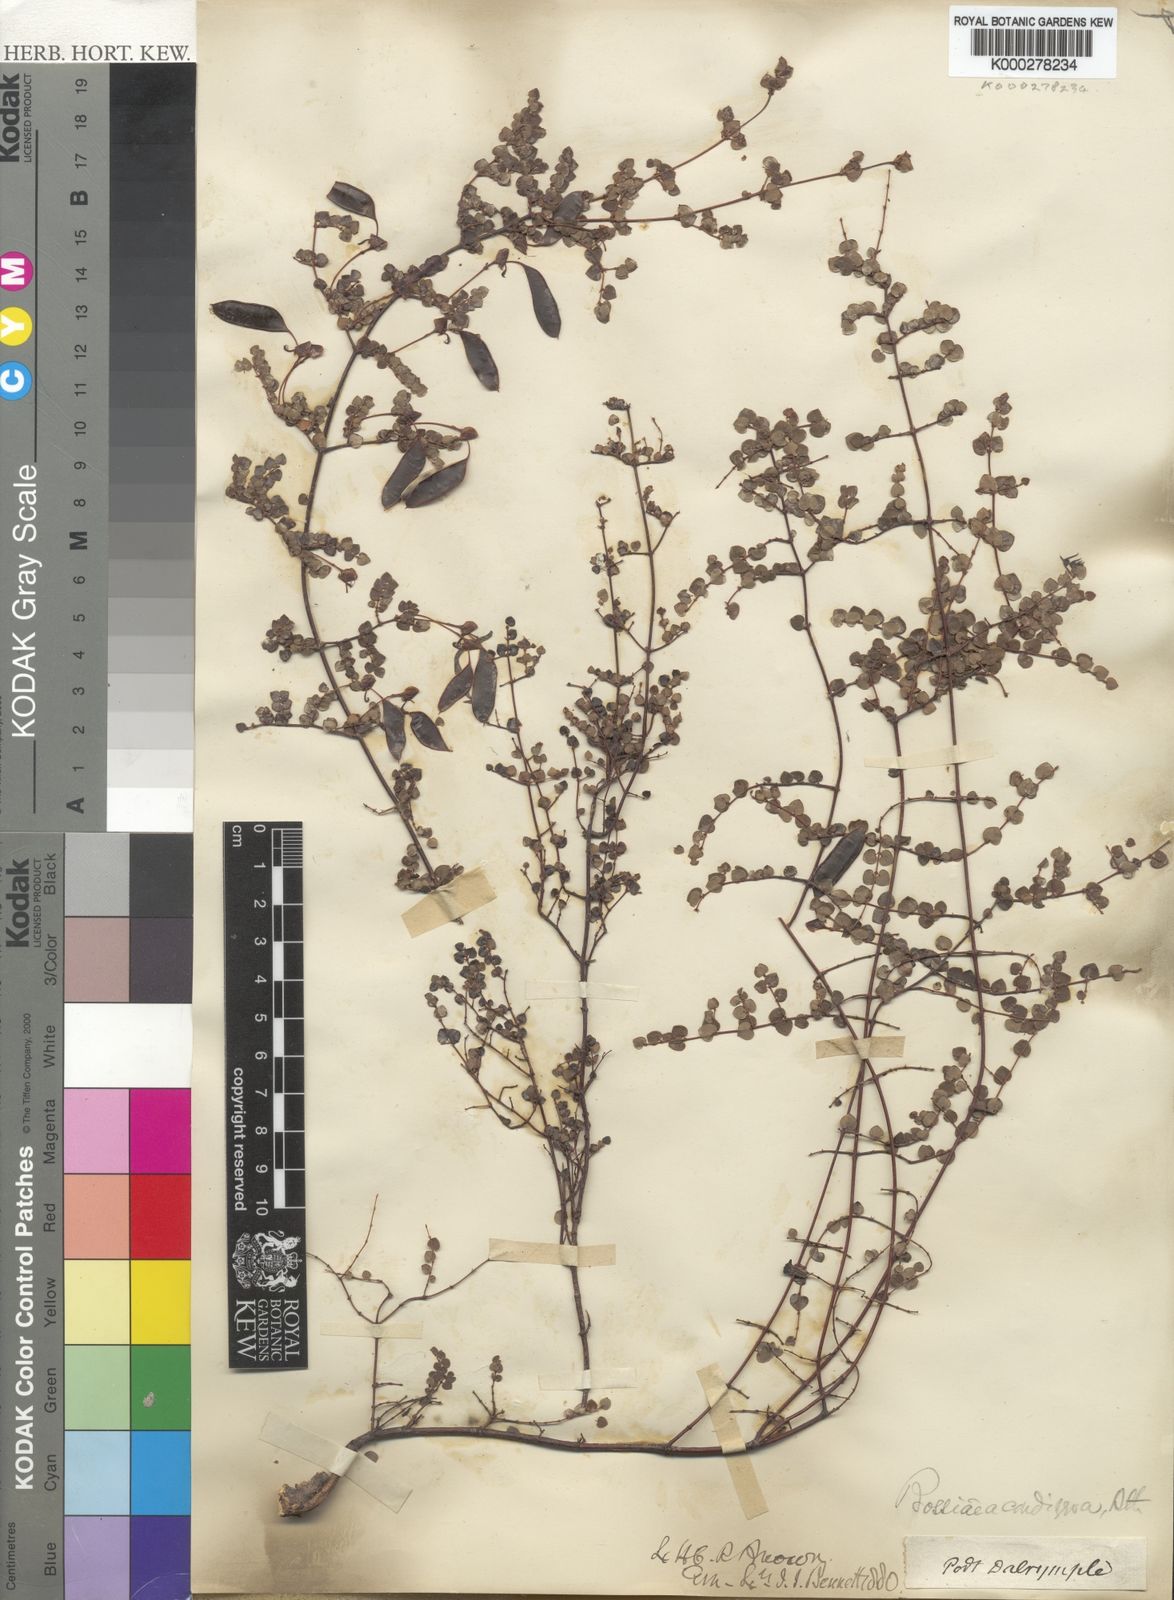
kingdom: Plantae
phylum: Tracheophyta
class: Magnoliopsida
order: Fabales
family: Fabaceae
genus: Bossiaea
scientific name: Bossiaea hendersonii
